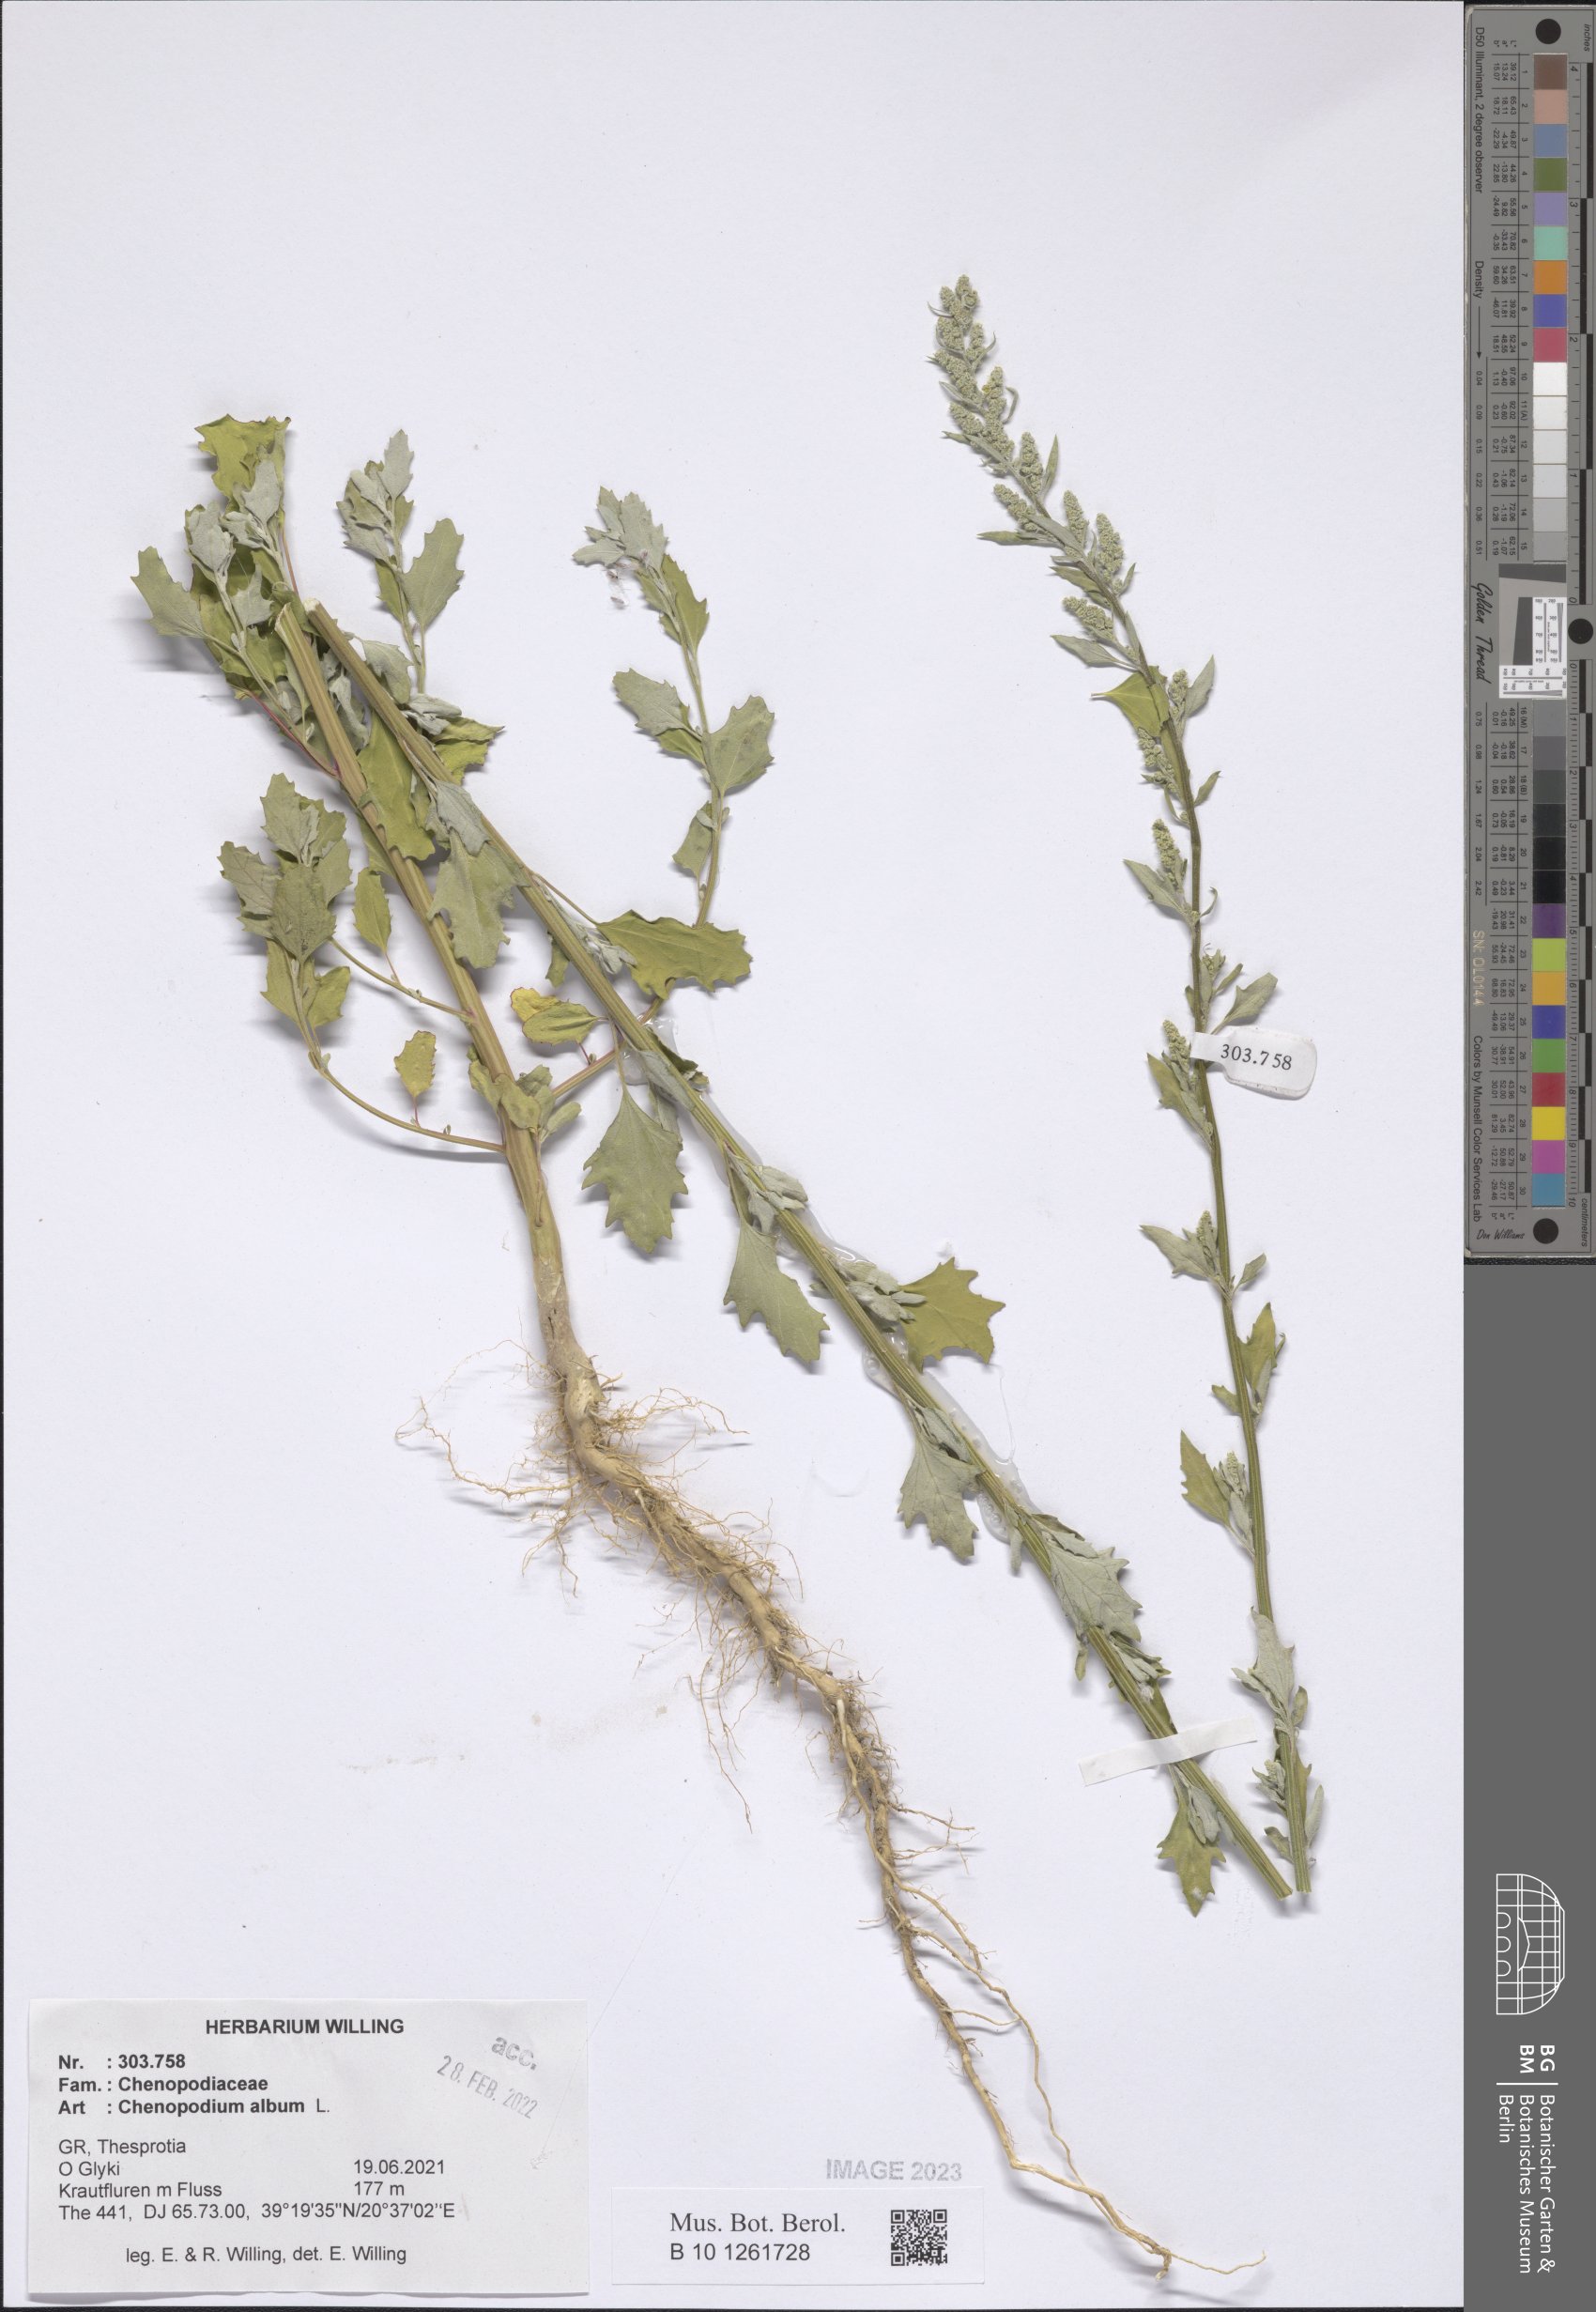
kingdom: Plantae
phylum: Tracheophyta
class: Magnoliopsida
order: Caryophyllales
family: Amaranthaceae
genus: Chenopodium
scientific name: Chenopodium album
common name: Fat-hen
